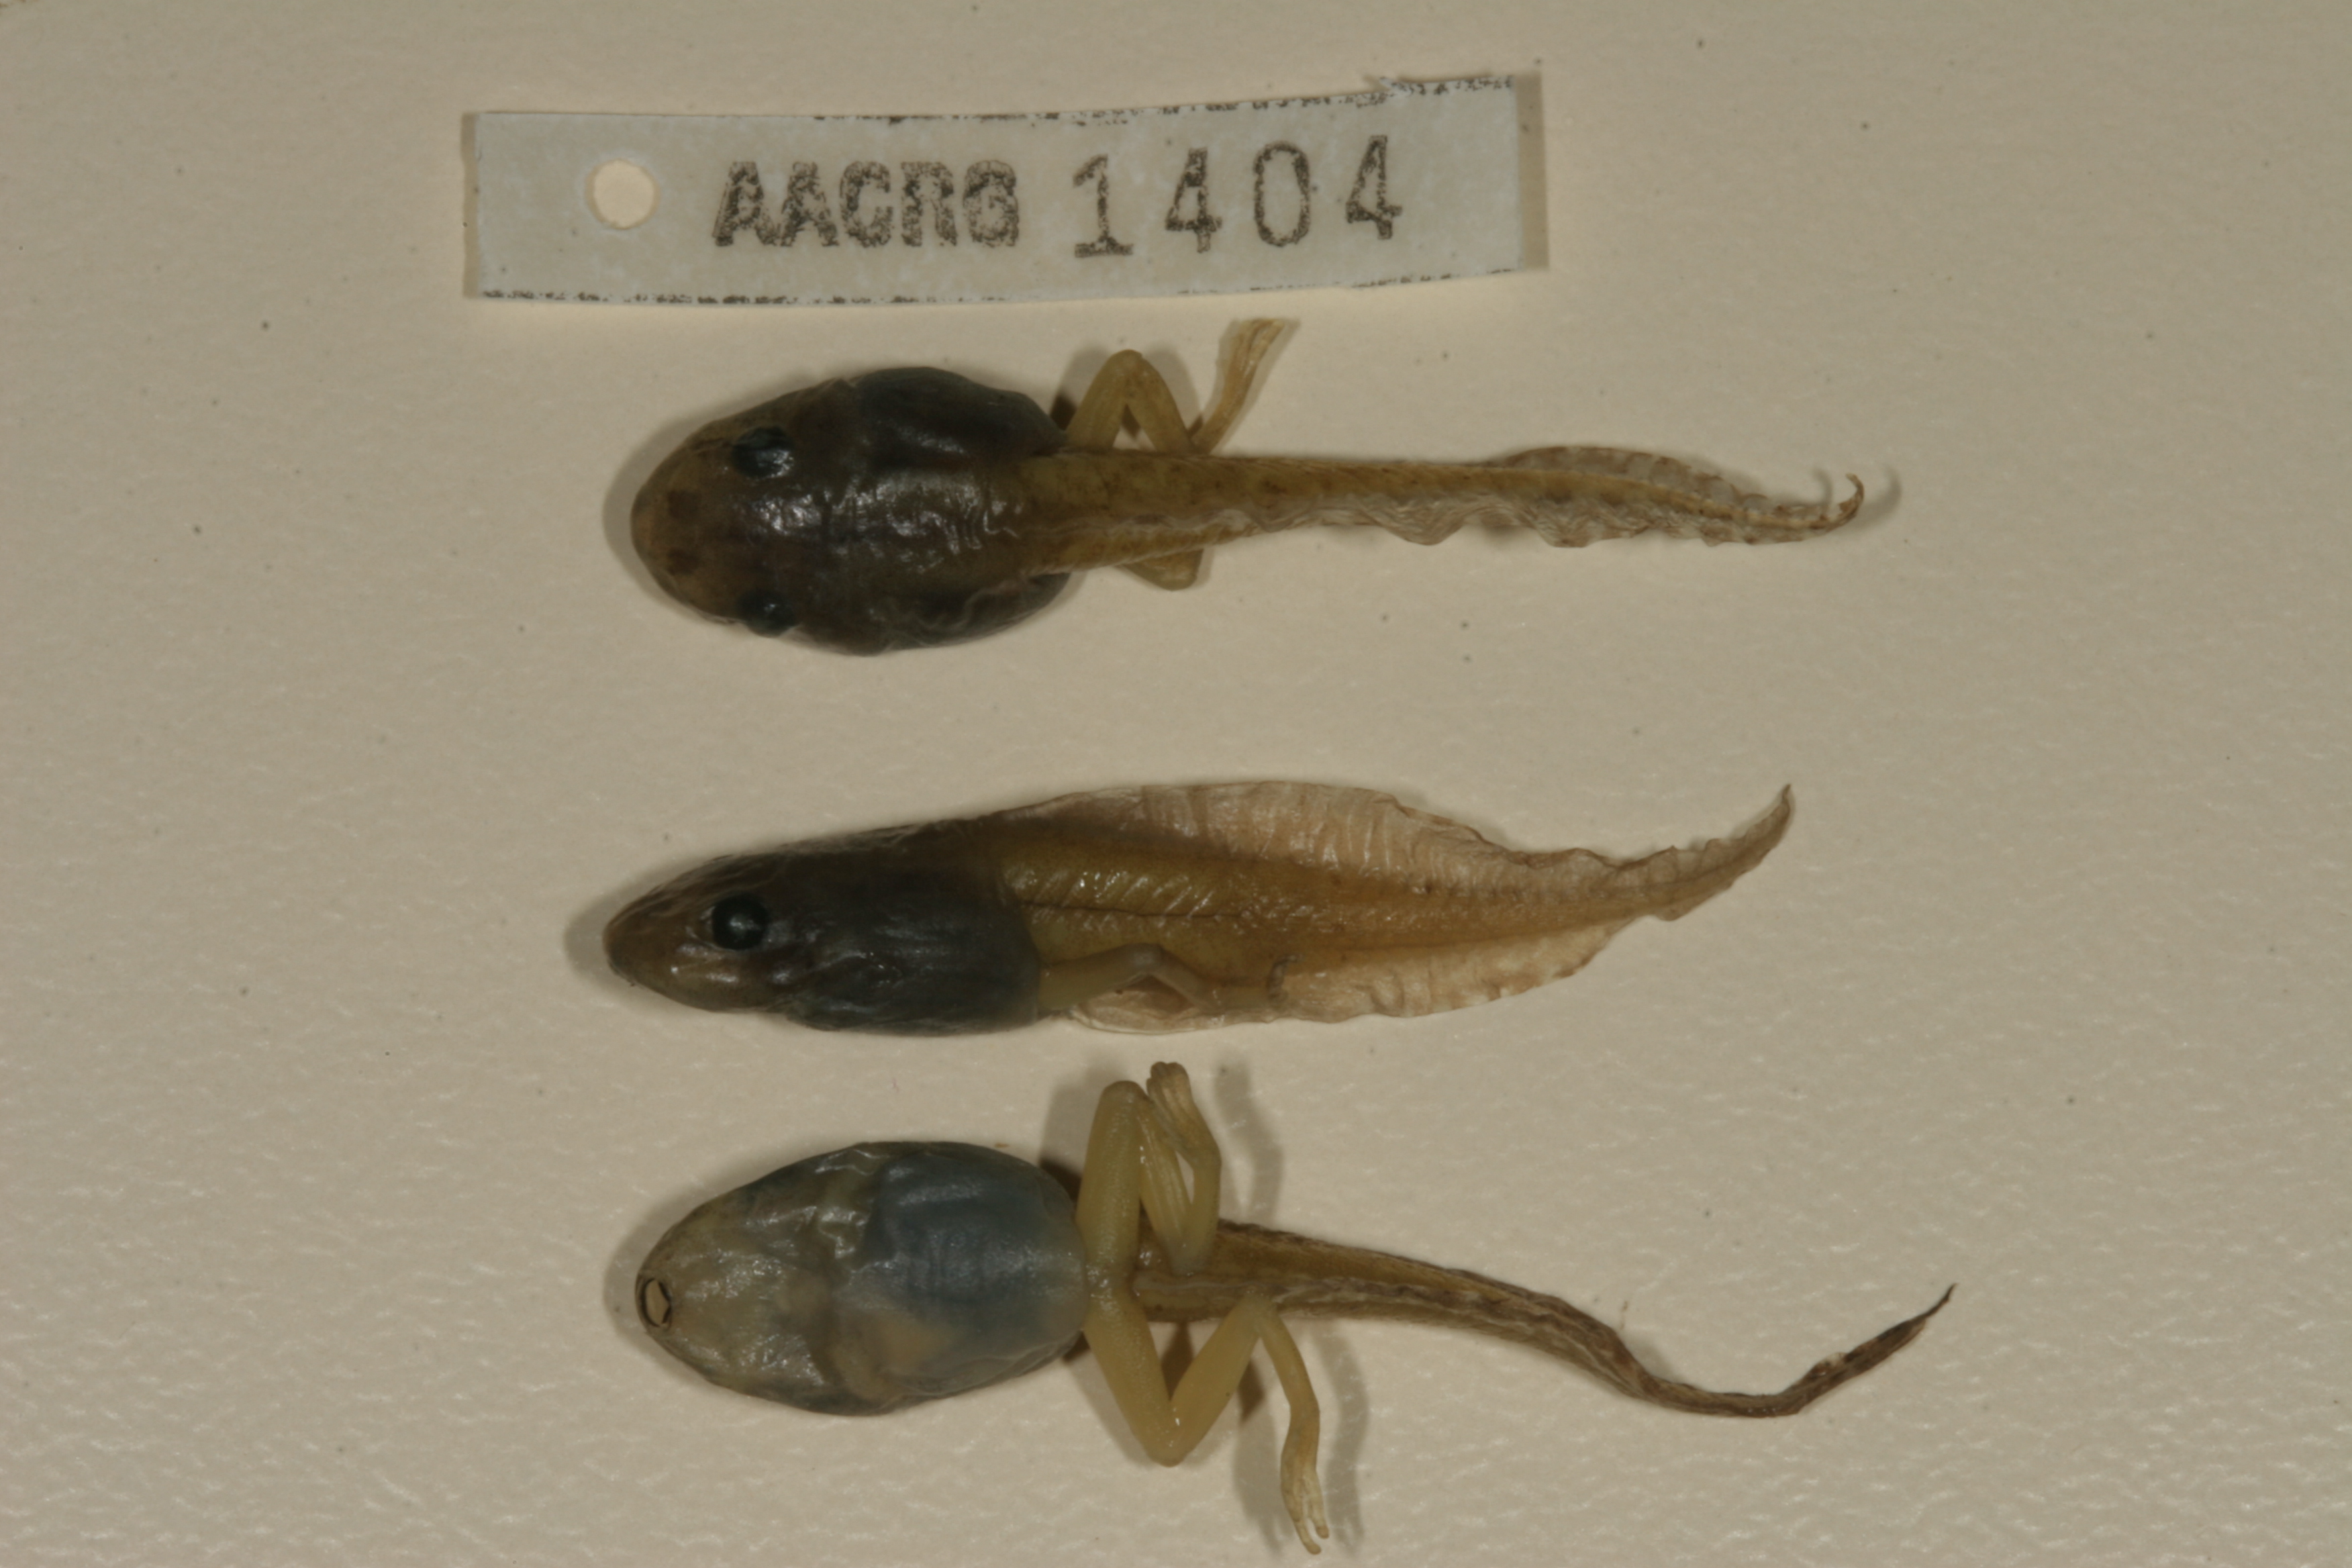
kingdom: Animalia
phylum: Chordata
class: Amphibia
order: Anura
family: Hyperoliidae
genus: Hyperolius
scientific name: Hyperolius marmoratus
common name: Painted reed frog
